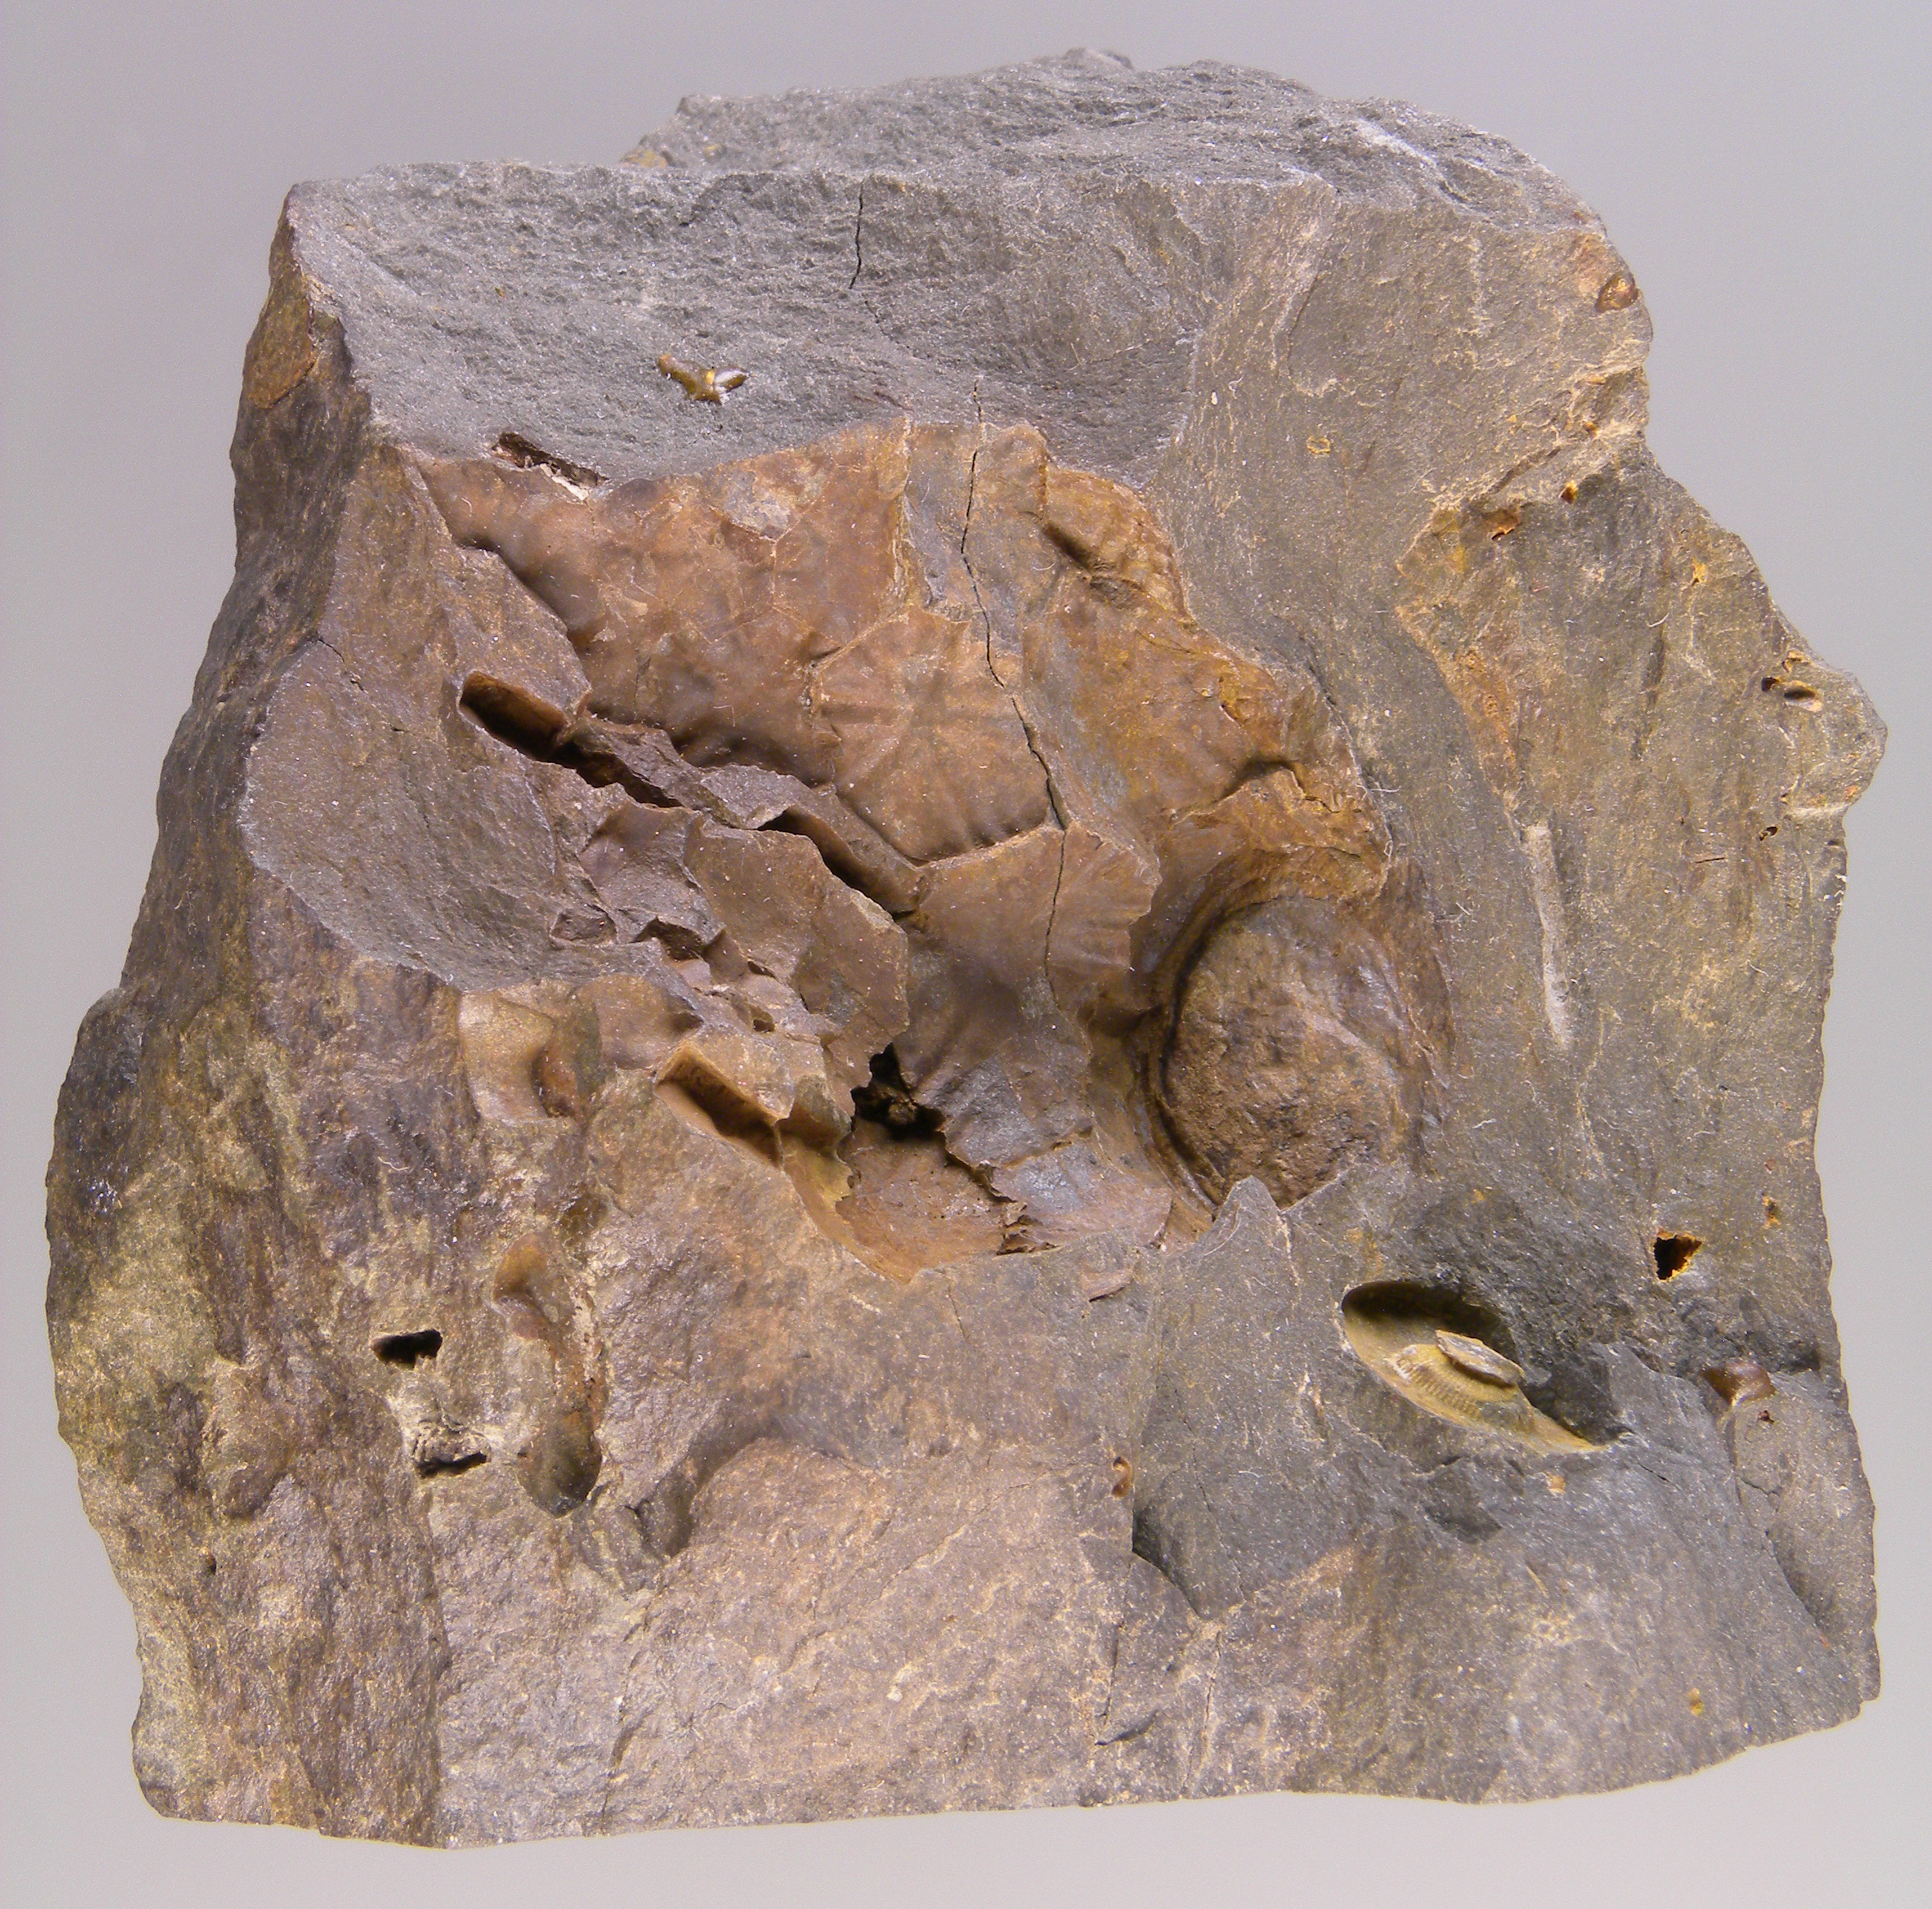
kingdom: Animalia
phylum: Echinodermata
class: Crinoidea
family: Melocrinitidae
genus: Ctenocrinus
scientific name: Ctenocrinus
